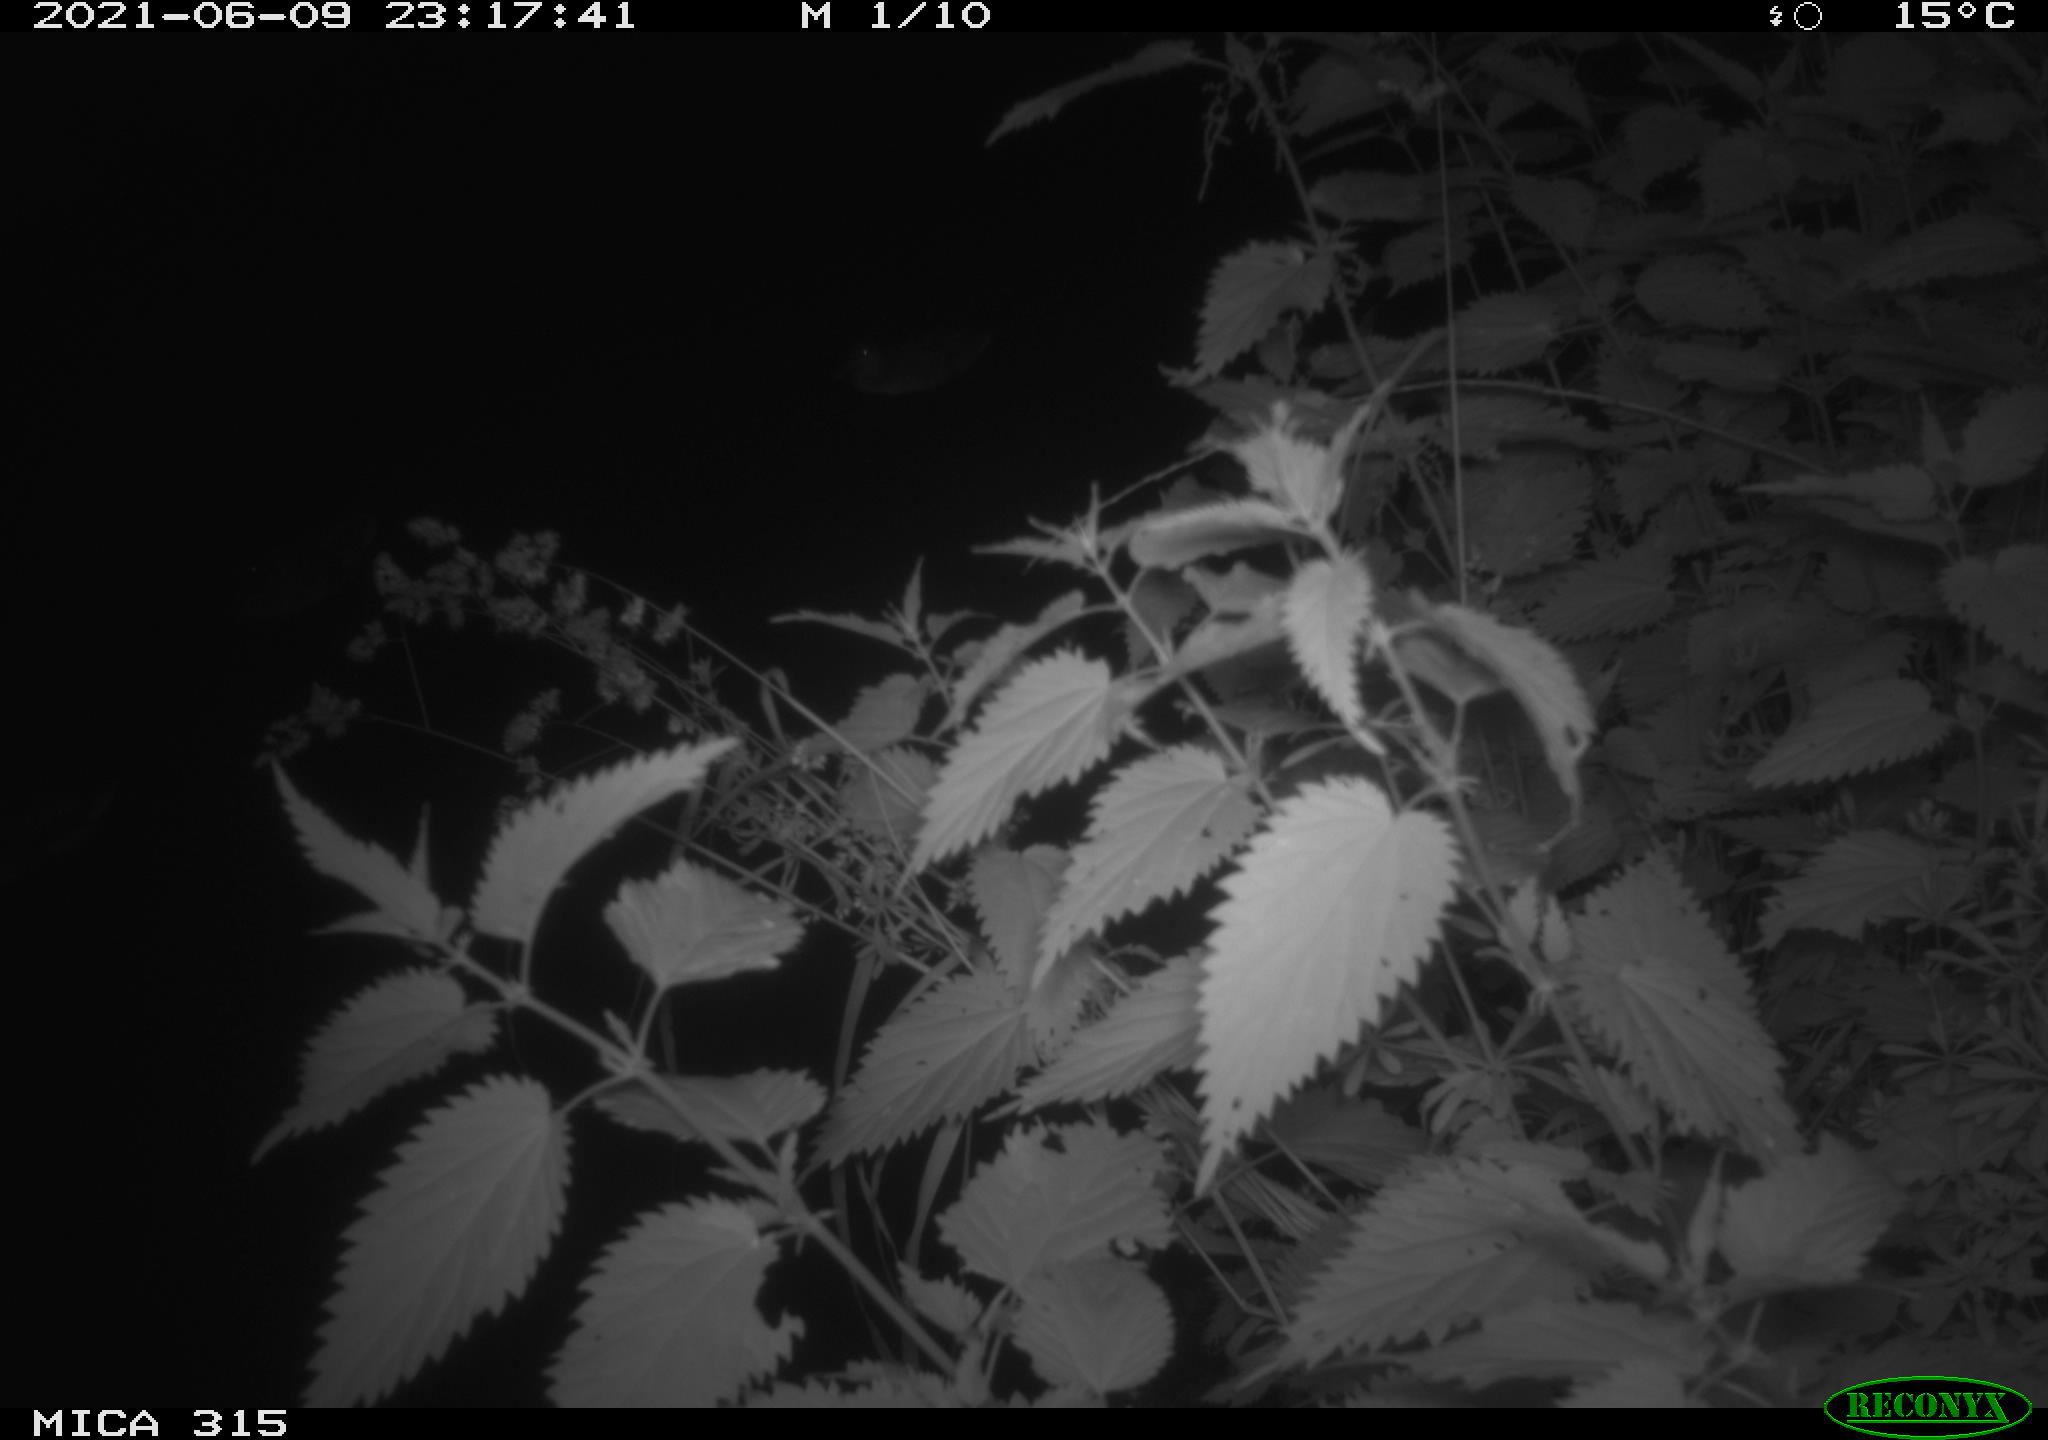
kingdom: Animalia
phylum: Chordata
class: Aves
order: Anseriformes
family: Anatidae
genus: Anas
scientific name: Anas platyrhynchos
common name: Mallard
